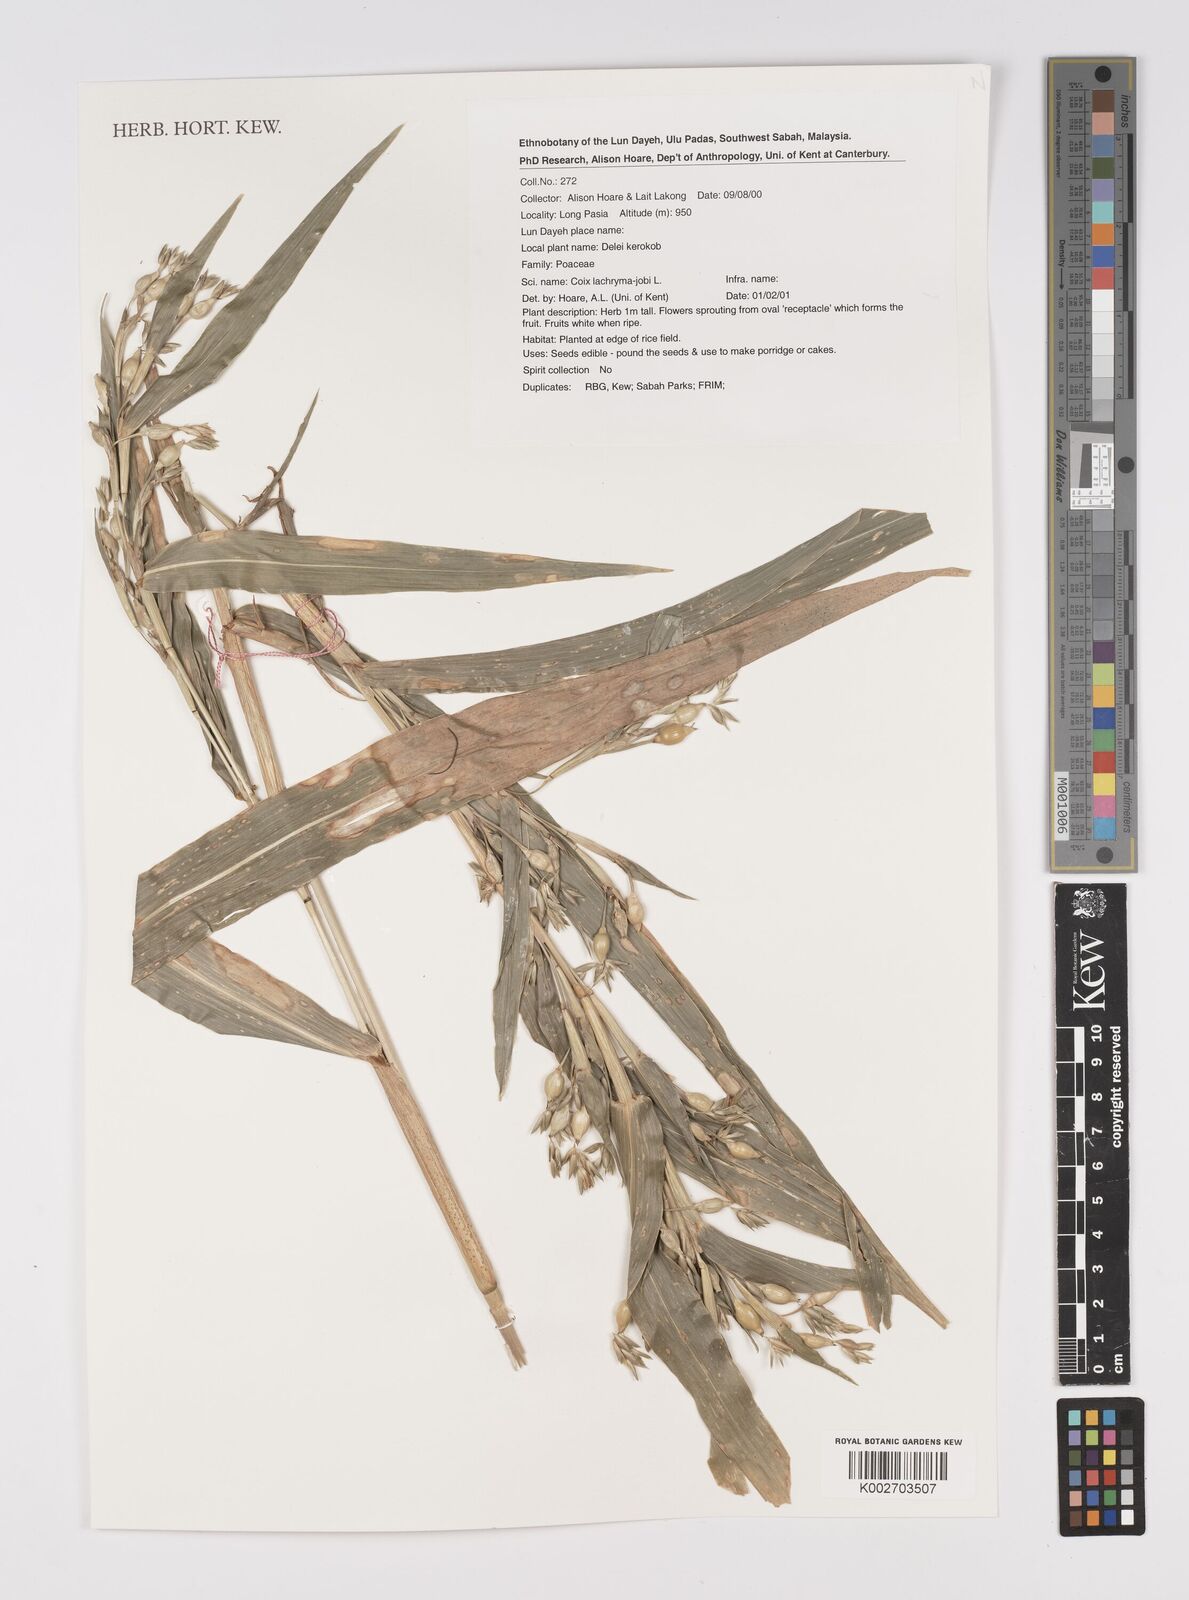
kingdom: Plantae
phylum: Tracheophyta
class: Liliopsida
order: Poales
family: Poaceae
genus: Coix
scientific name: Coix lacryma-jobi
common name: Job's tears
